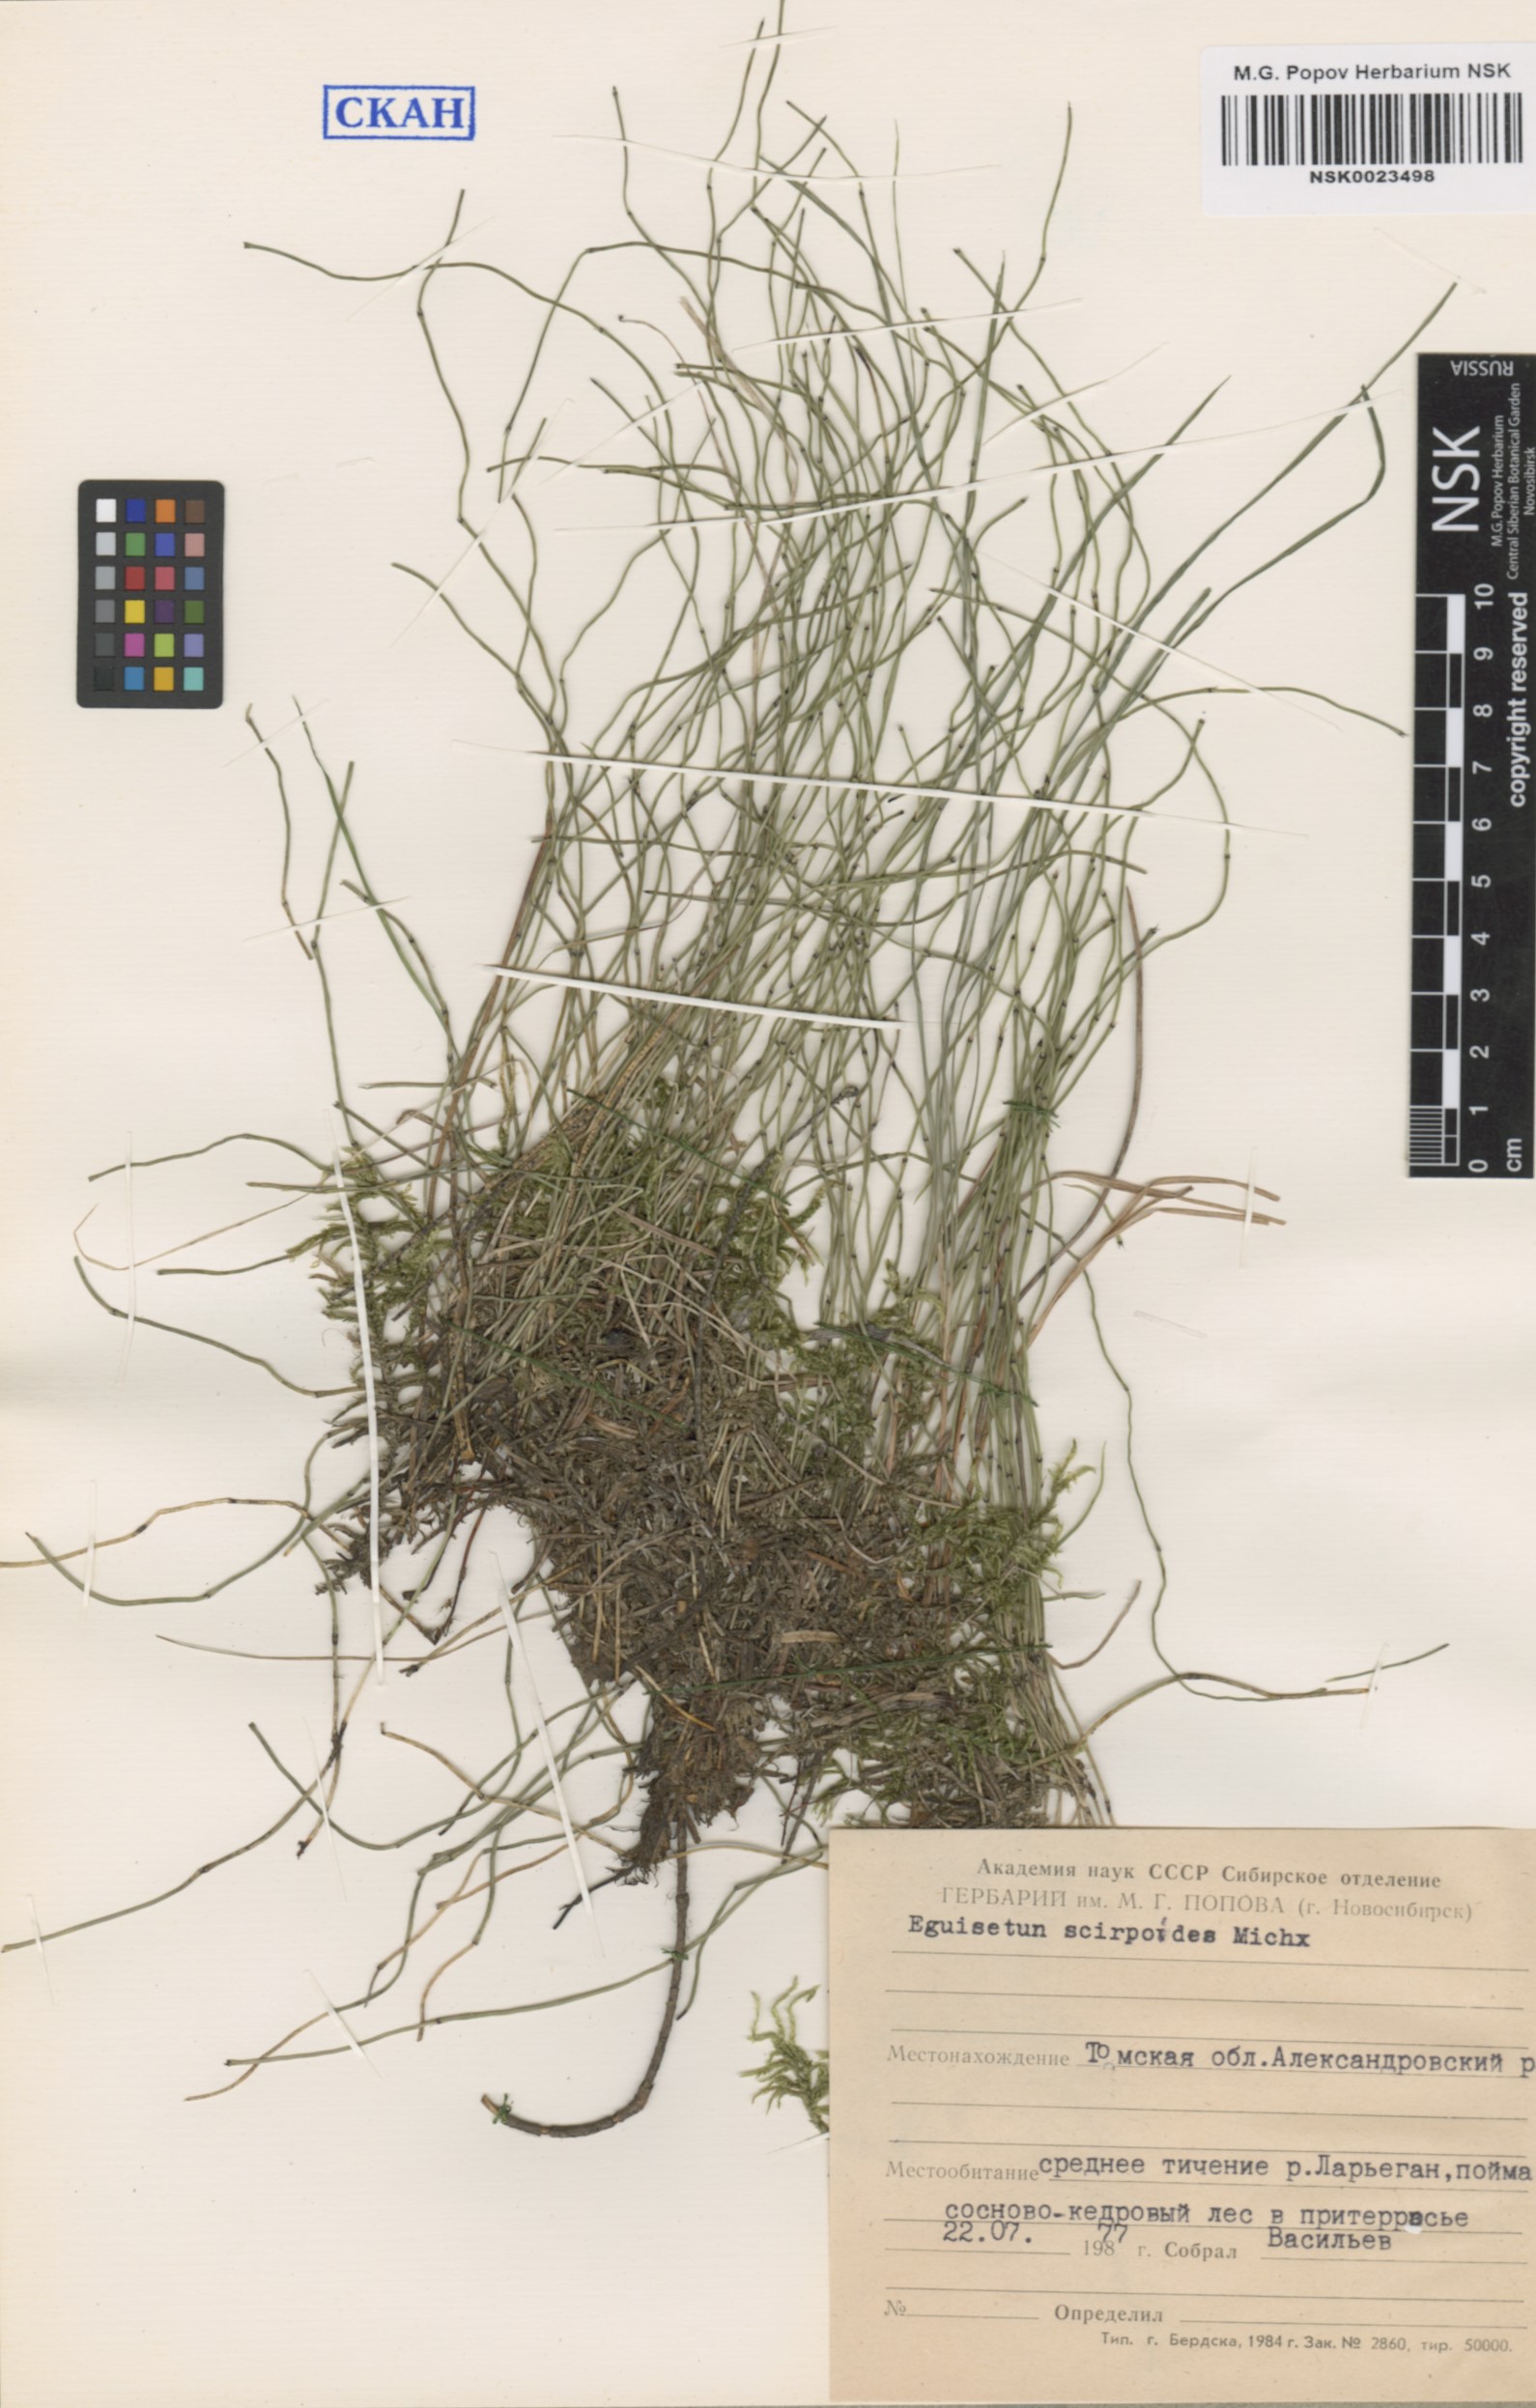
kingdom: Plantae
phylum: Tracheophyta
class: Polypodiopsida
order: Equisetales
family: Equisetaceae
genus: Equisetum
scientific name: Equisetum scirpoides
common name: Delicate horsetail
